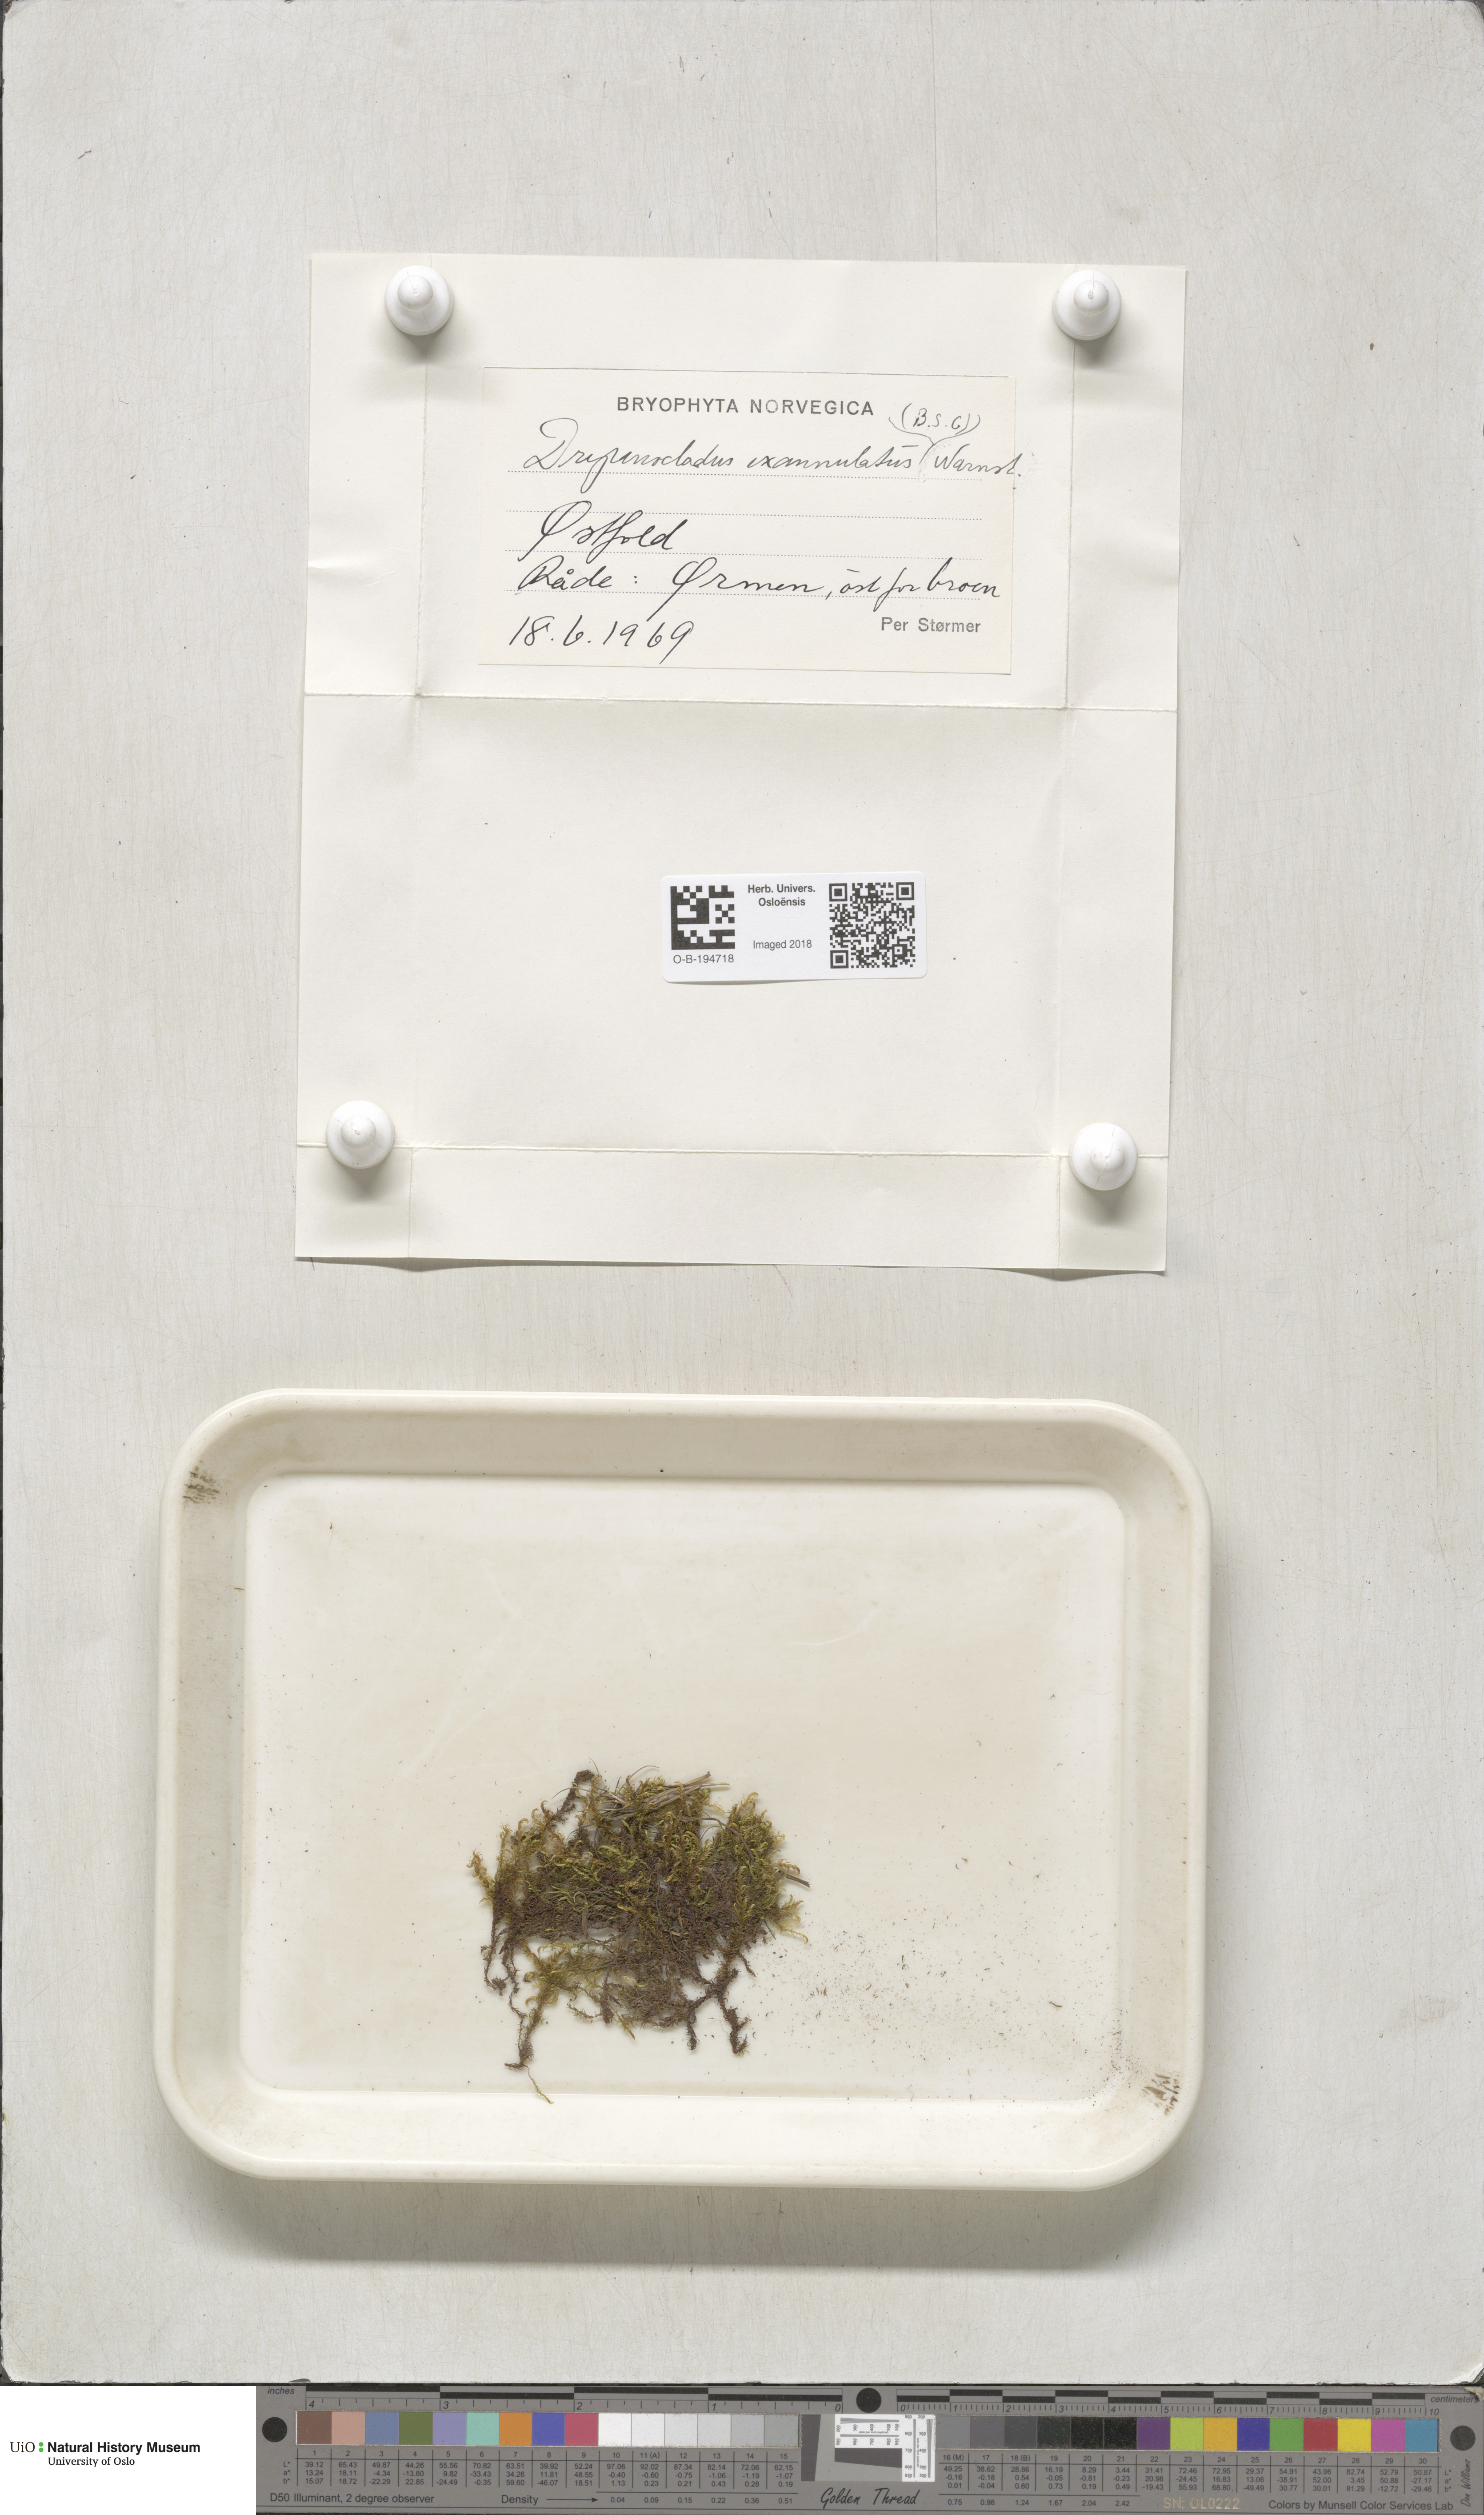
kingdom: Plantae
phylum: Bryophyta
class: Bryopsida
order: Hypnales
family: Calliergonaceae
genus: Sarmentypnum
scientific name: Sarmentypnum exannulatum
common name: Ringless spoon moss
